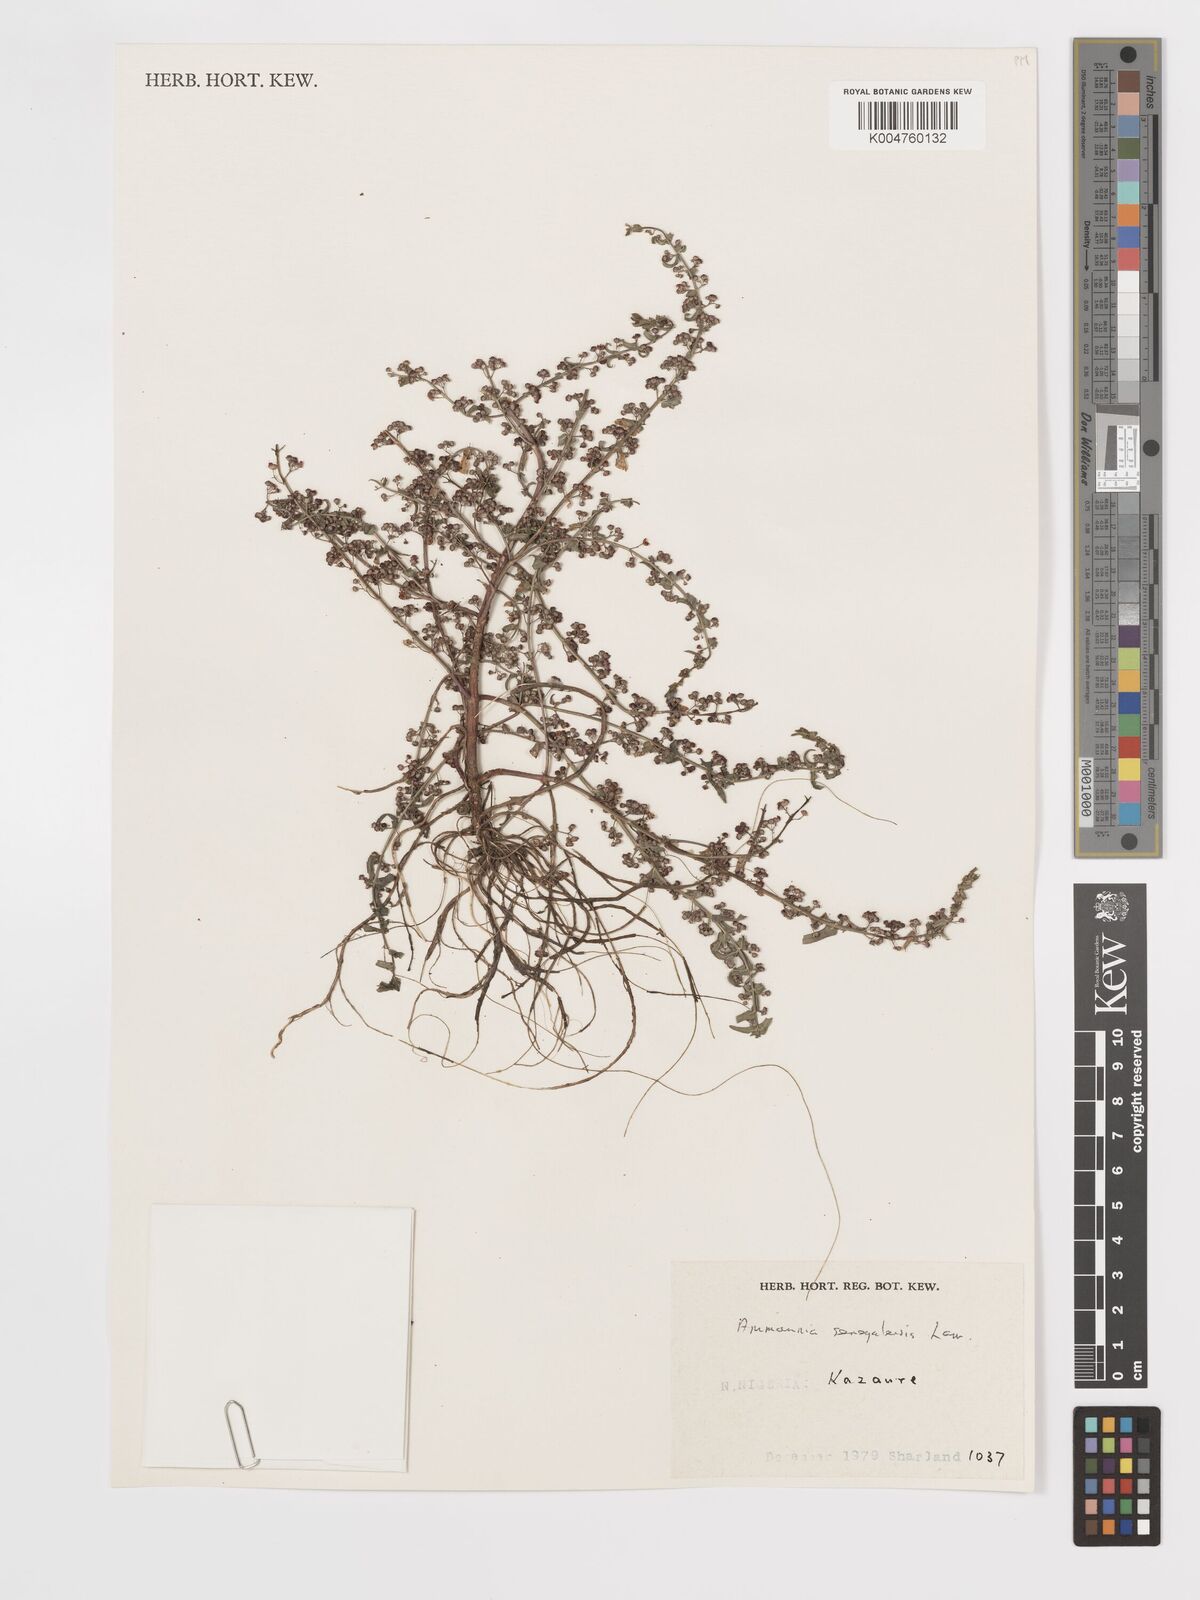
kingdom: Plantae
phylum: Tracheophyta
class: Magnoliopsida
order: Myrtales
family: Lythraceae
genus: Ammannia
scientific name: Ammannia senegalensis
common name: Red ammannia
